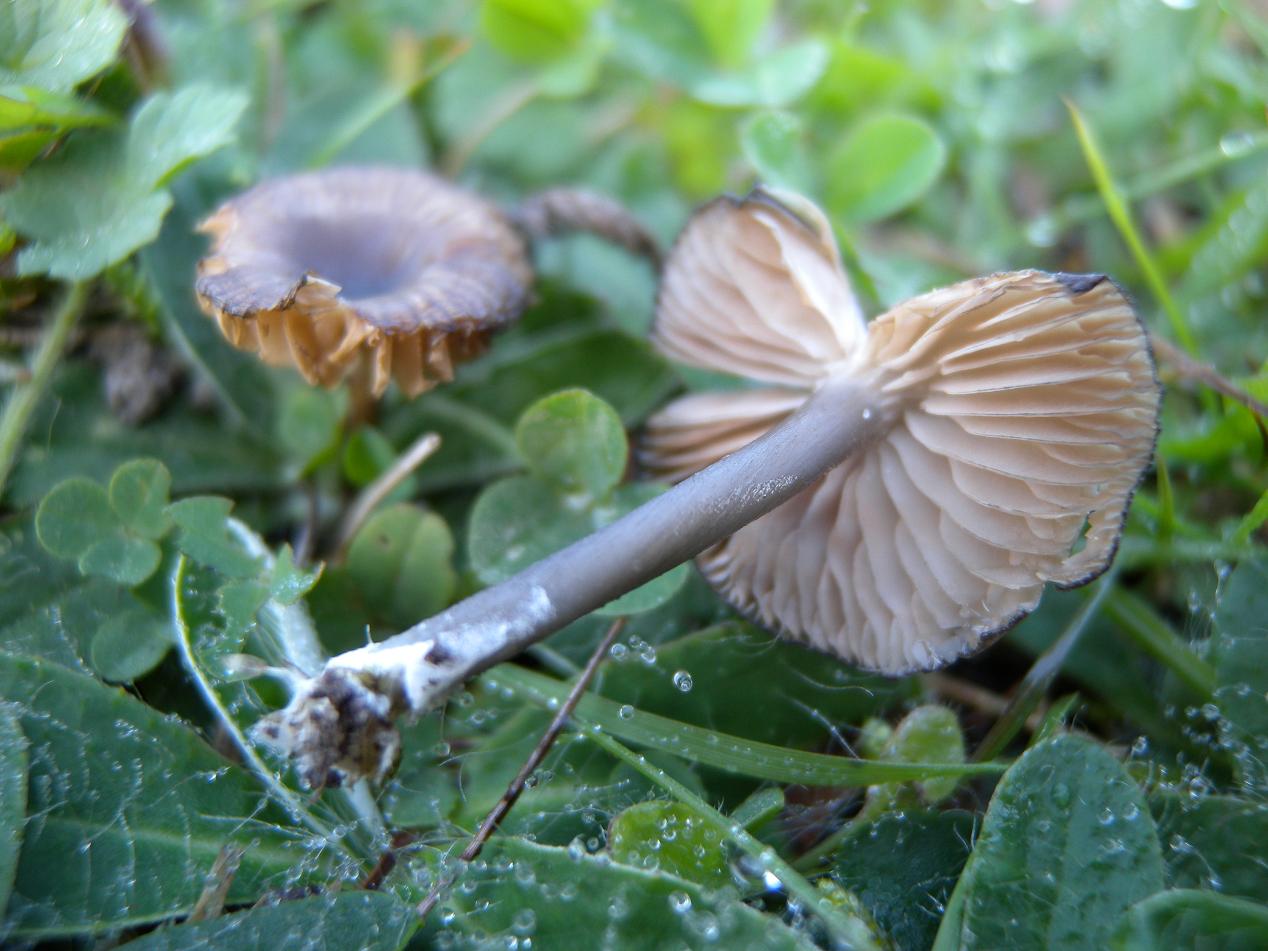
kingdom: Fungi
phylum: Basidiomycota
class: Agaricomycetes
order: Agaricales
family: Entolomataceae
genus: Entoloma
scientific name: Entoloma caesiocinctum
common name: Blue-girdled pinkgill
